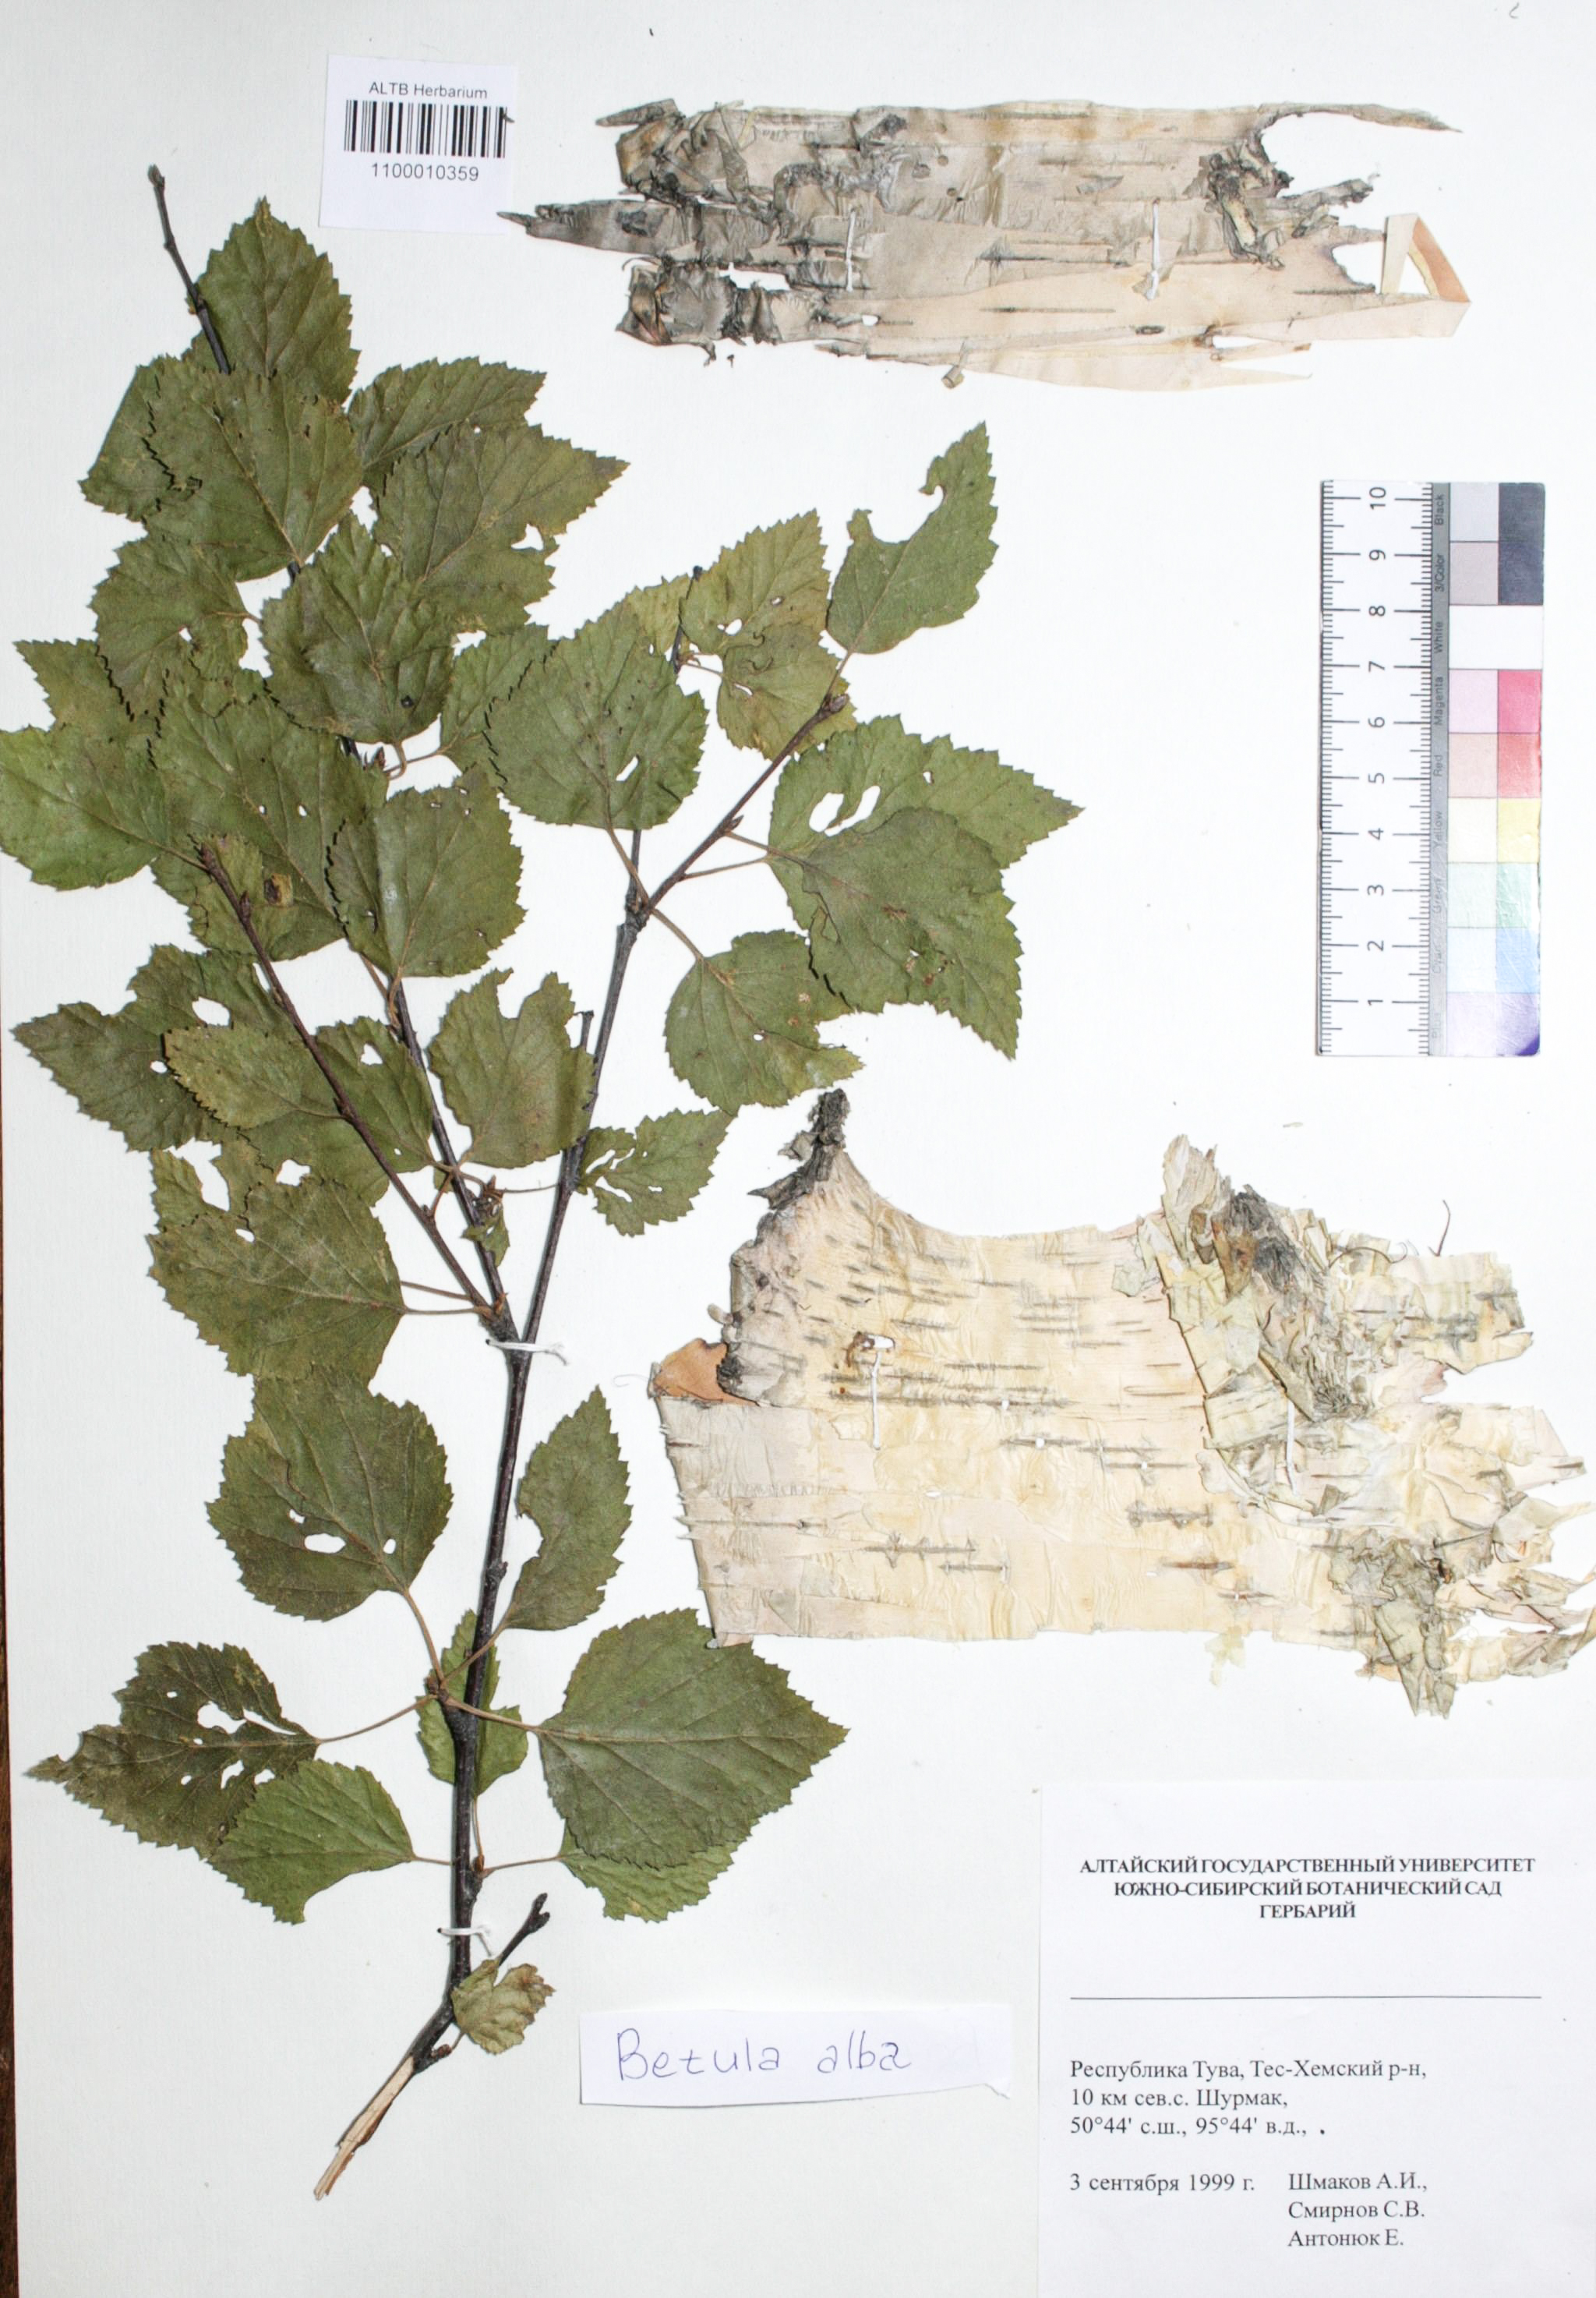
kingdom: Plantae
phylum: Tracheophyta
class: Magnoliopsida
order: Fagales
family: Betulaceae
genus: Betula
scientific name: Betula pubescens
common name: Downy birch
